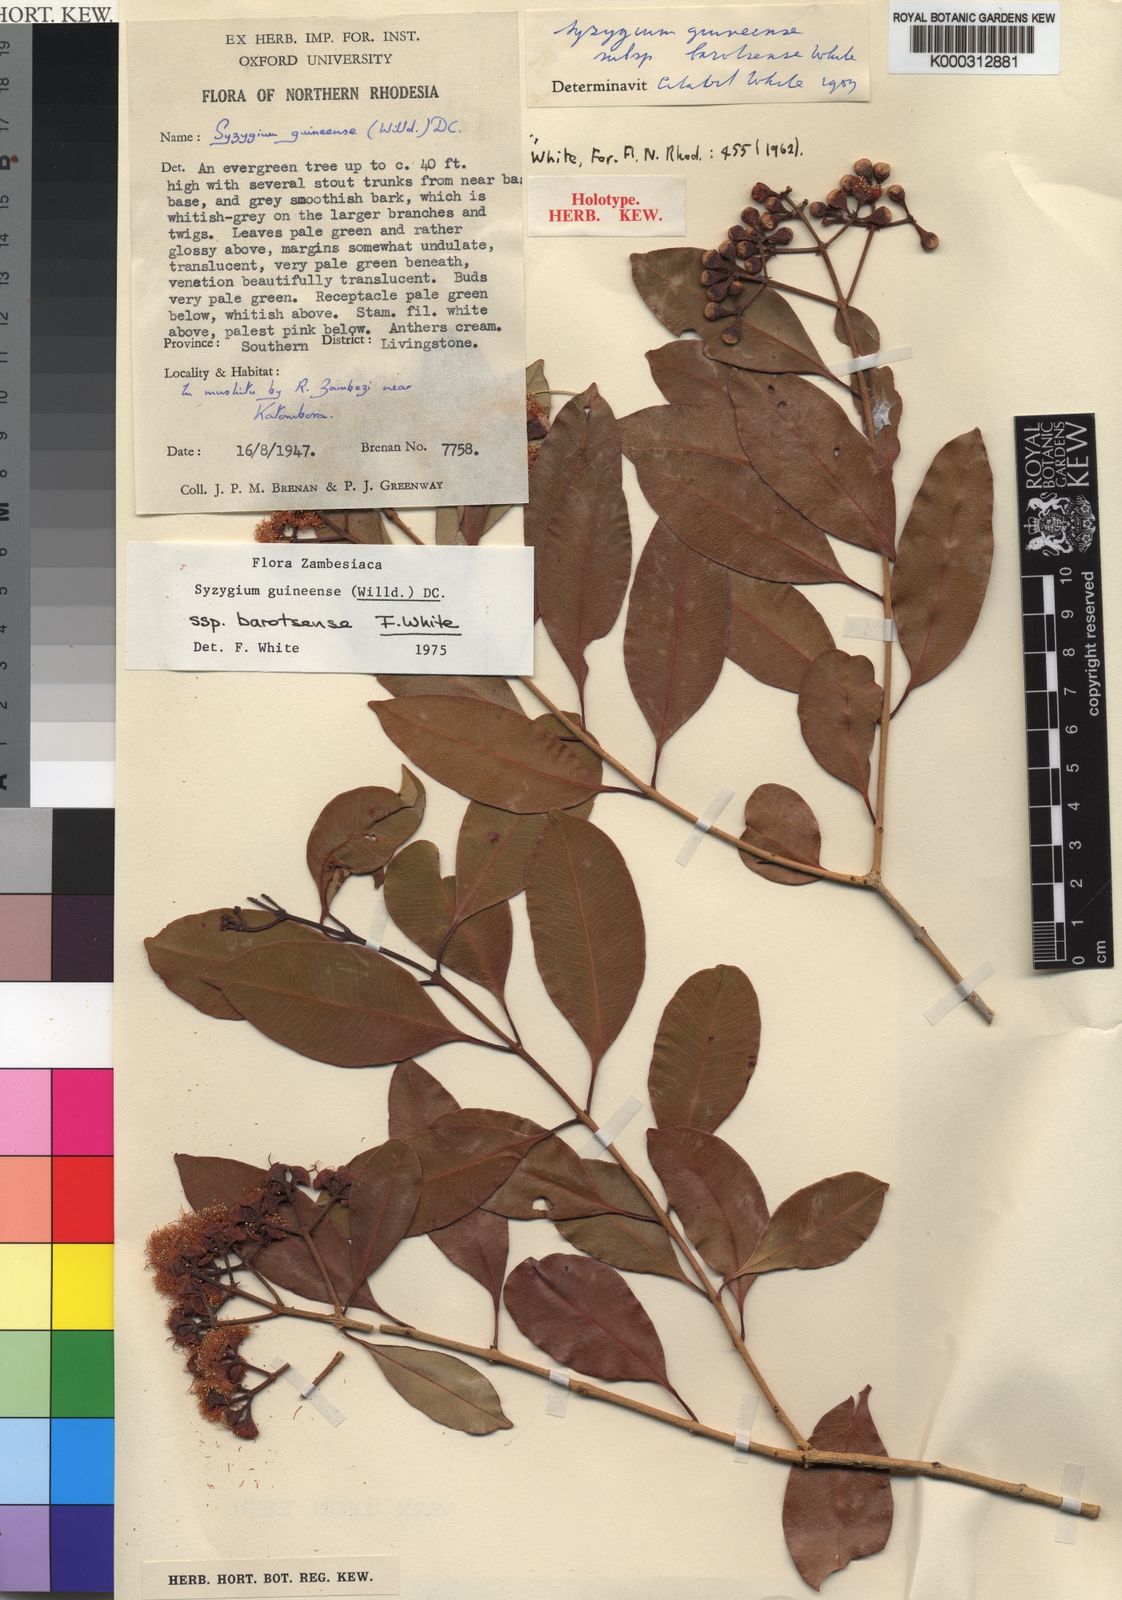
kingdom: Plantae
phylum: Tracheophyta
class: Magnoliopsida
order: Myrtales
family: Myrtaceae
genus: Syzygium
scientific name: Syzygium guineense
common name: Water-pear
